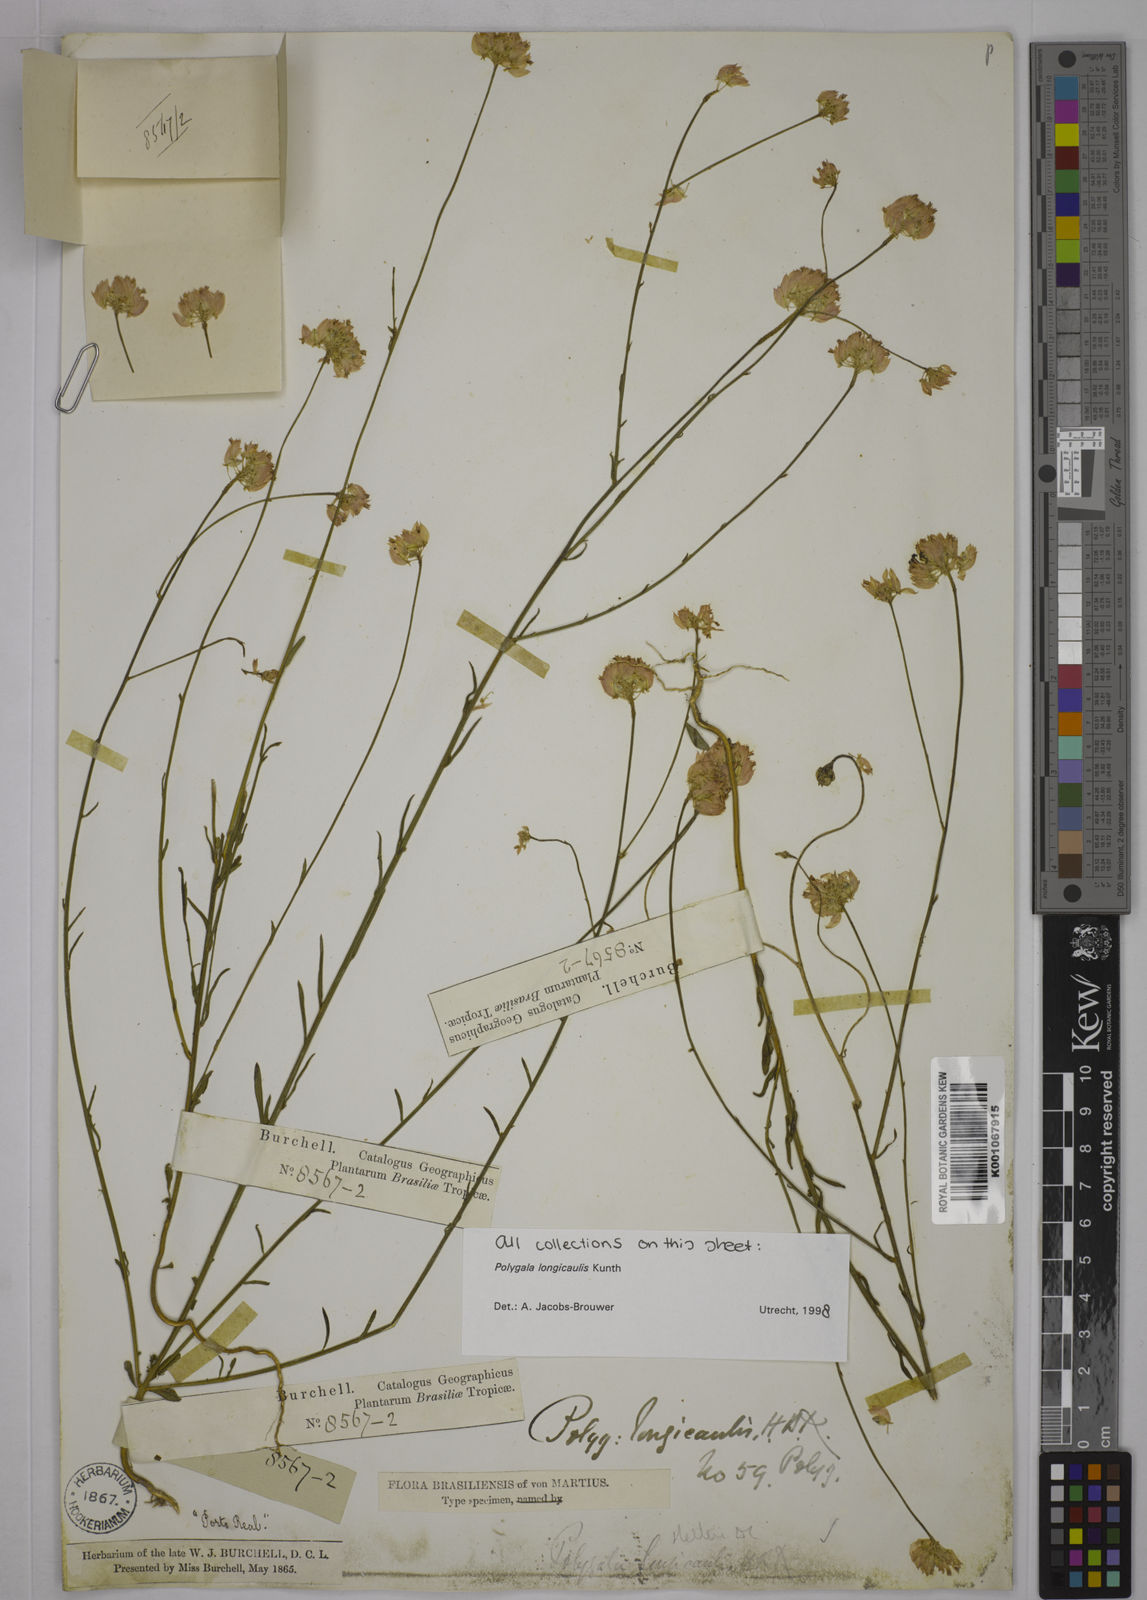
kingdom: Plantae
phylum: Tracheophyta
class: Magnoliopsida
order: Fabales
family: Polygalaceae
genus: Polygala
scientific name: Polygala longicaulis
